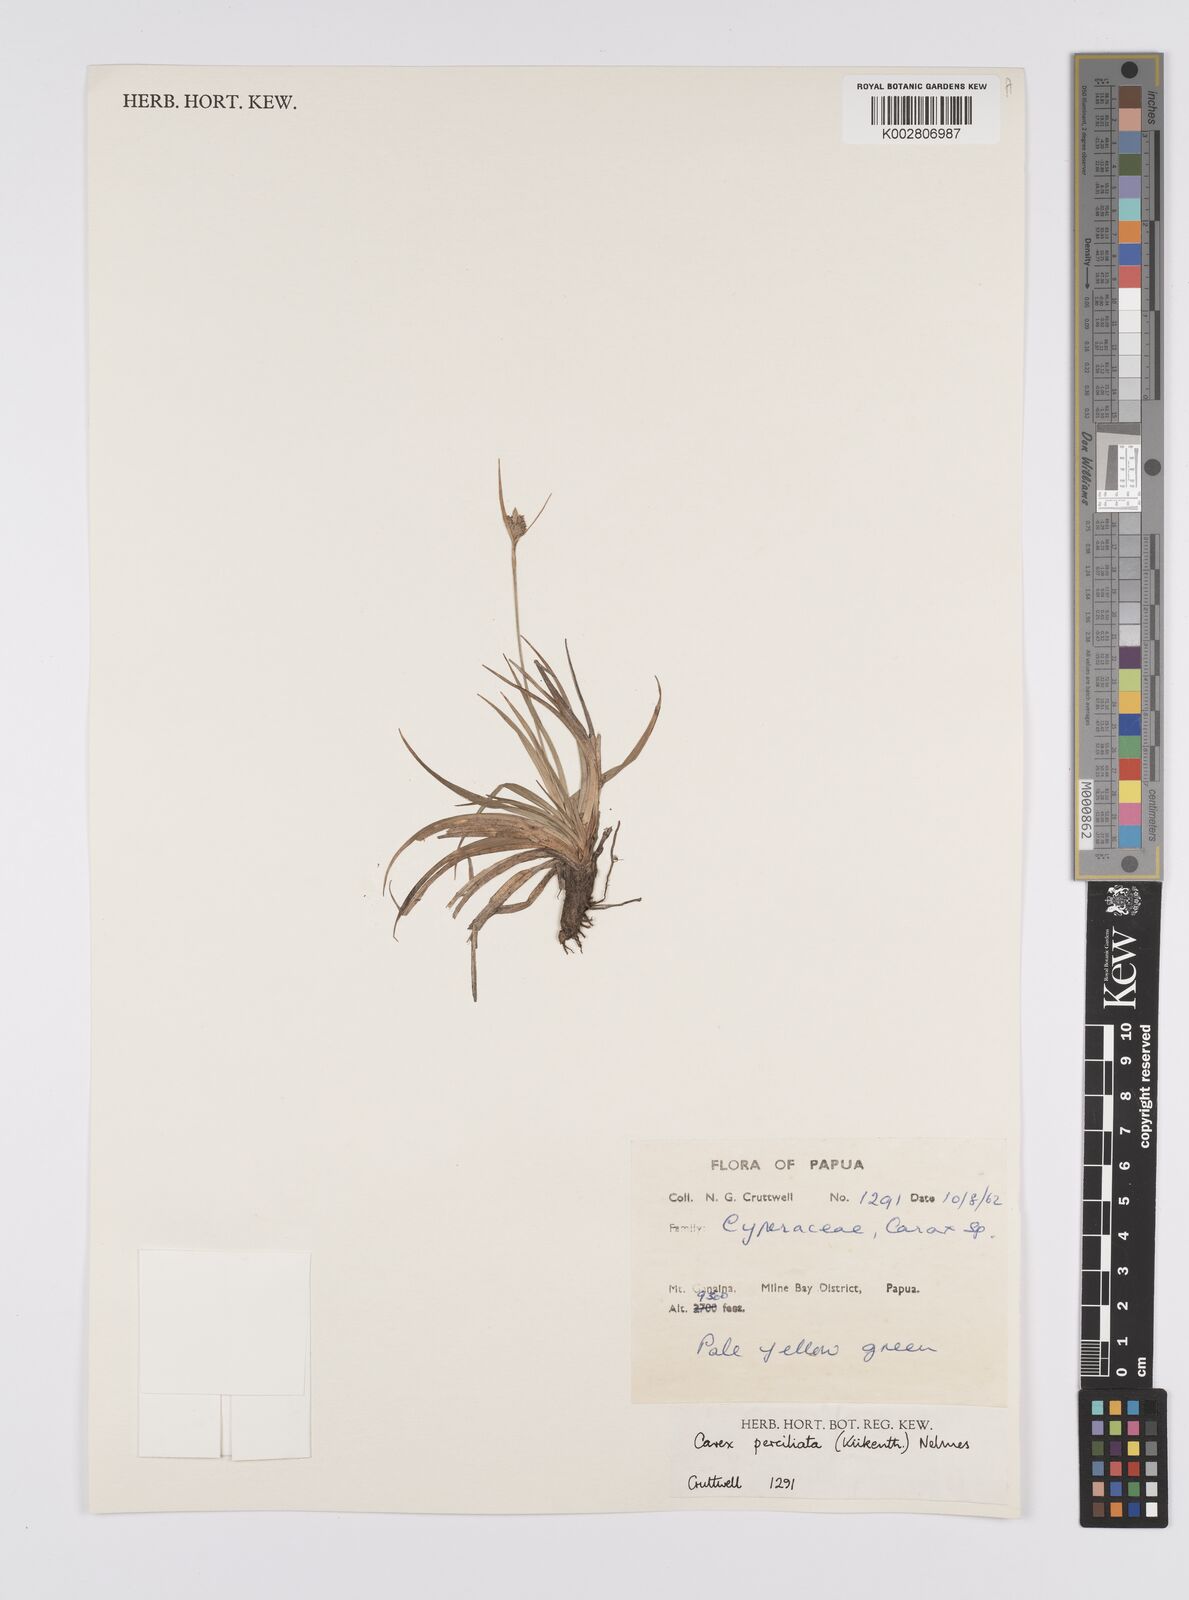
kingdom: Plantae
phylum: Tracheophyta
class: Liliopsida
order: Poales
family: Cyperaceae
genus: Carex
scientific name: Carex breviculmis
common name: Asian shortstem sedge
